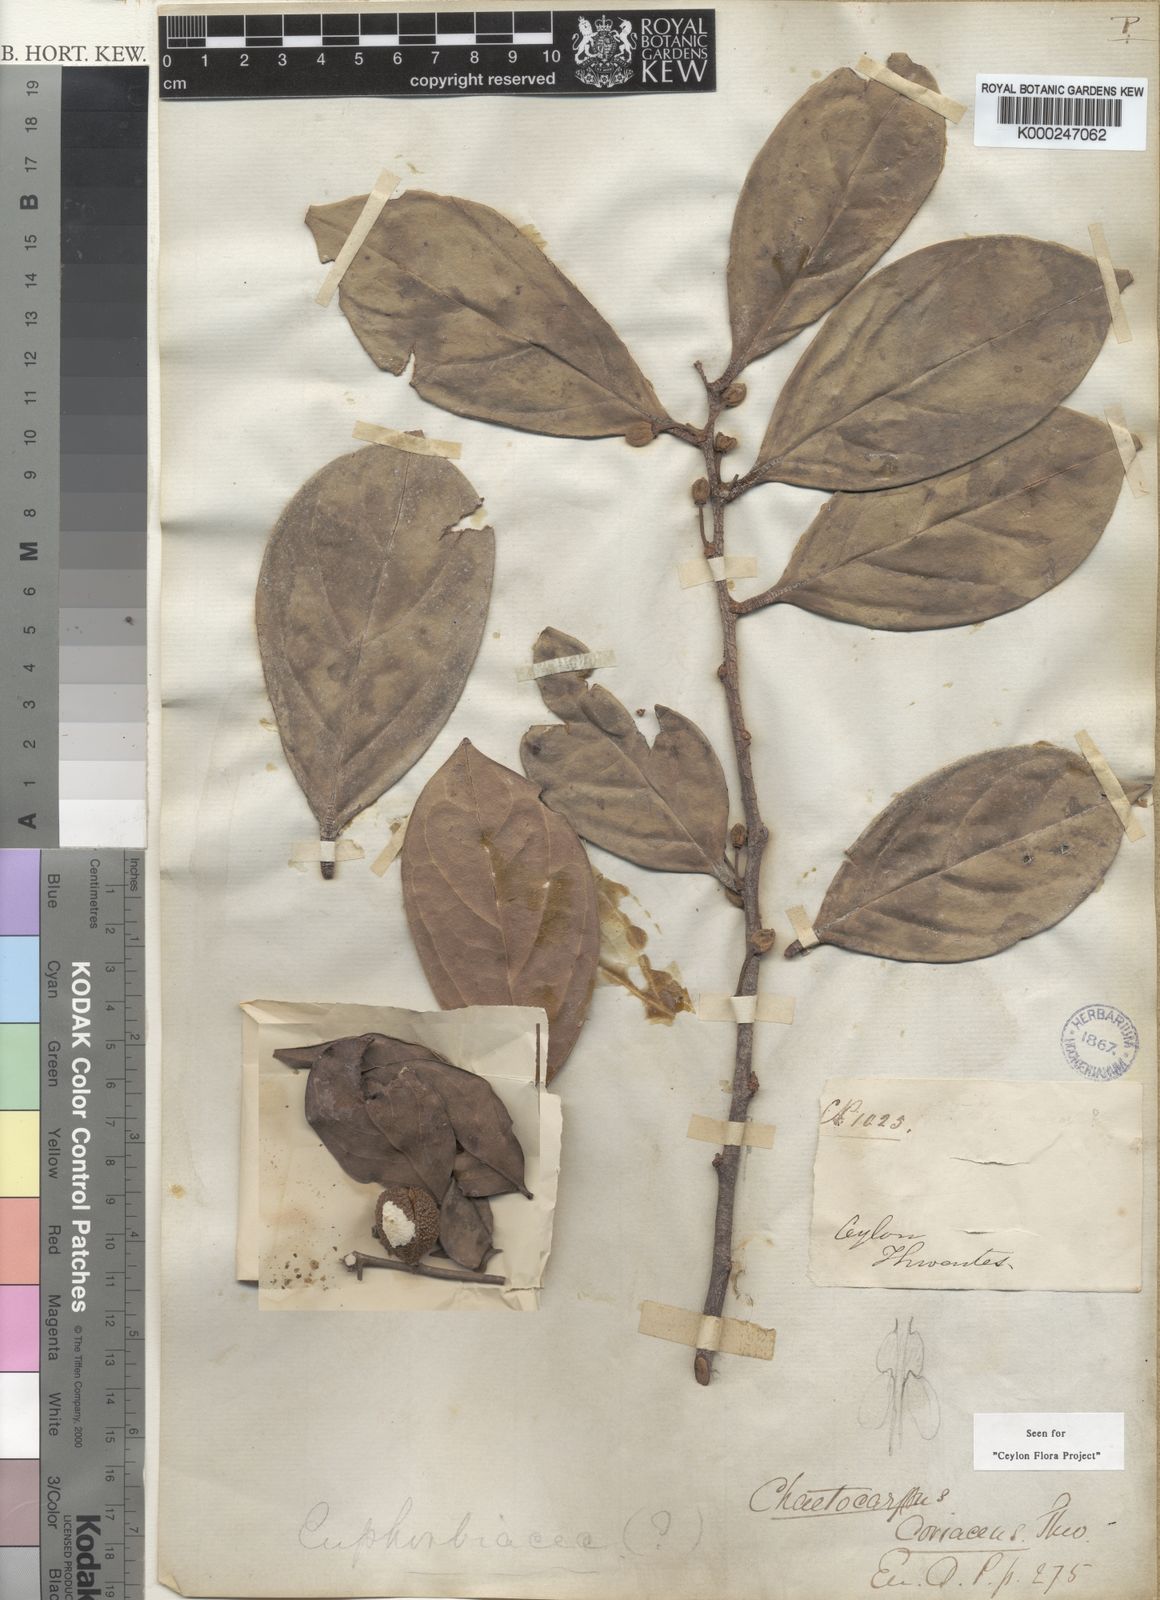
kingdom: Plantae
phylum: Tracheophyta
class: Magnoliopsida
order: Malpighiales
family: Peraceae
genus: Chaetocarpus
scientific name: Chaetocarpus coriaceus
